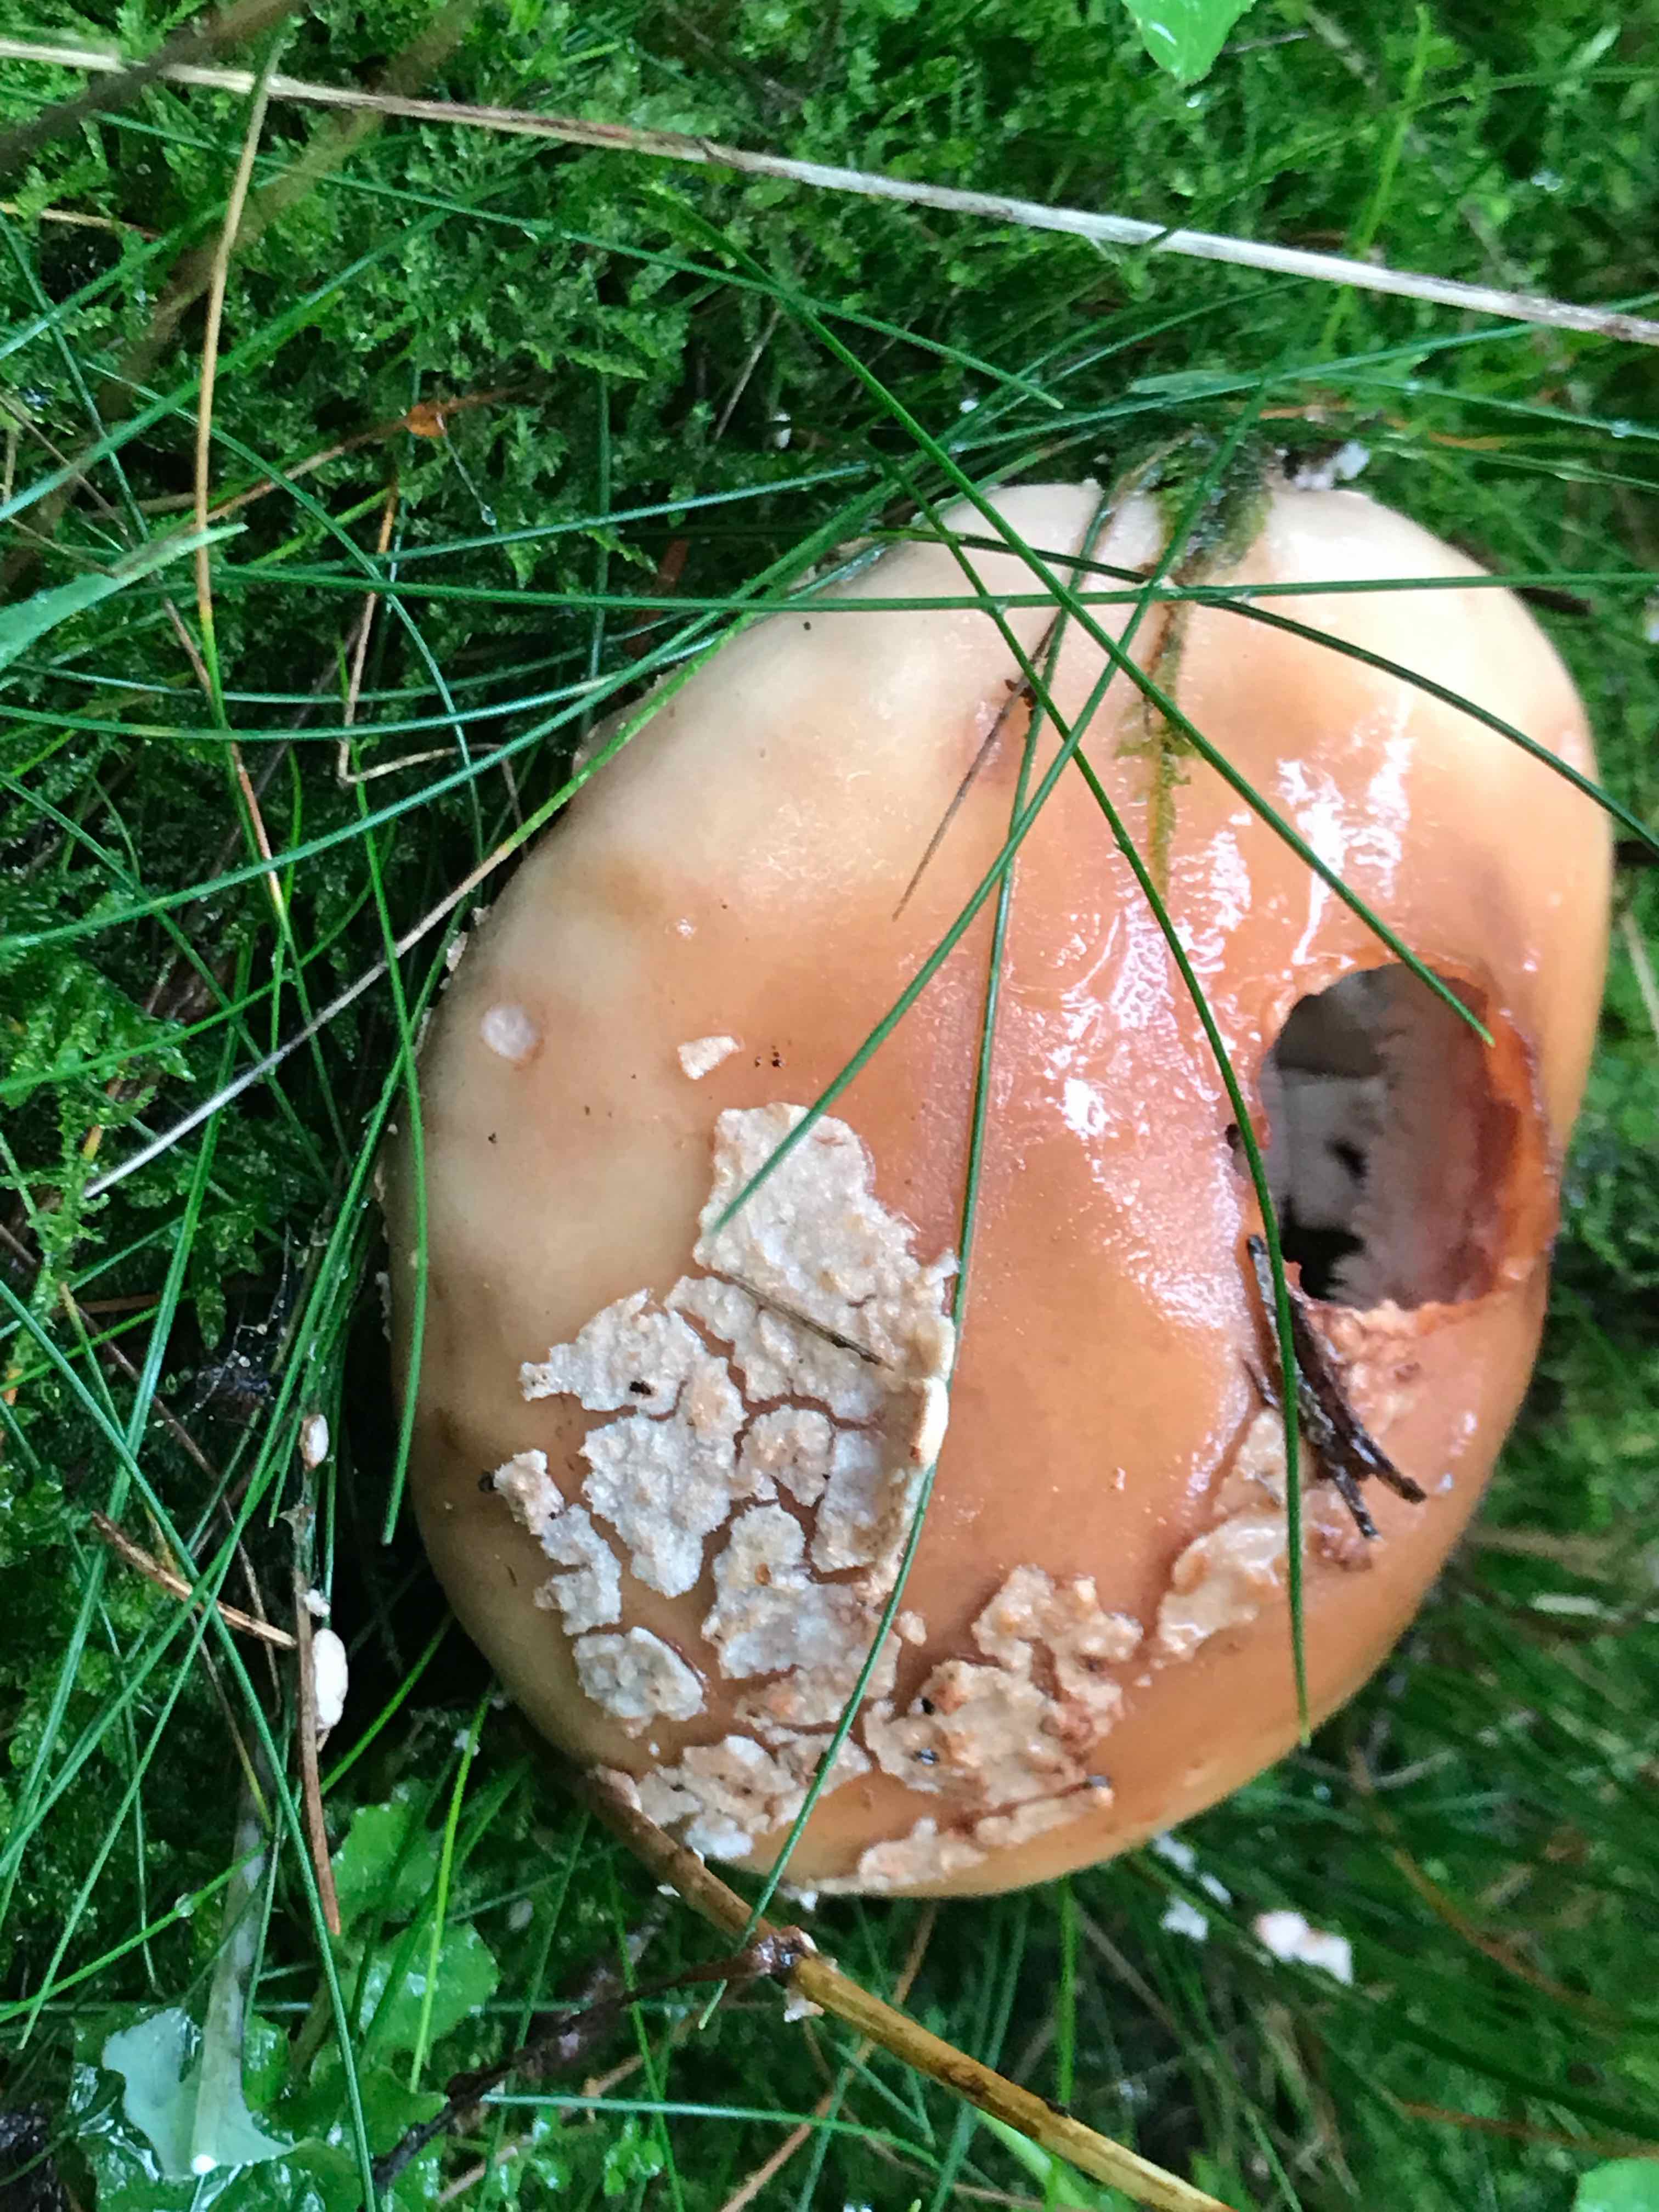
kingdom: Fungi
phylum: Basidiomycota
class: Agaricomycetes
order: Agaricales
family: Amanitaceae
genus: Amanita
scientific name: Amanita rubescens
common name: rødmende fluesvamp
